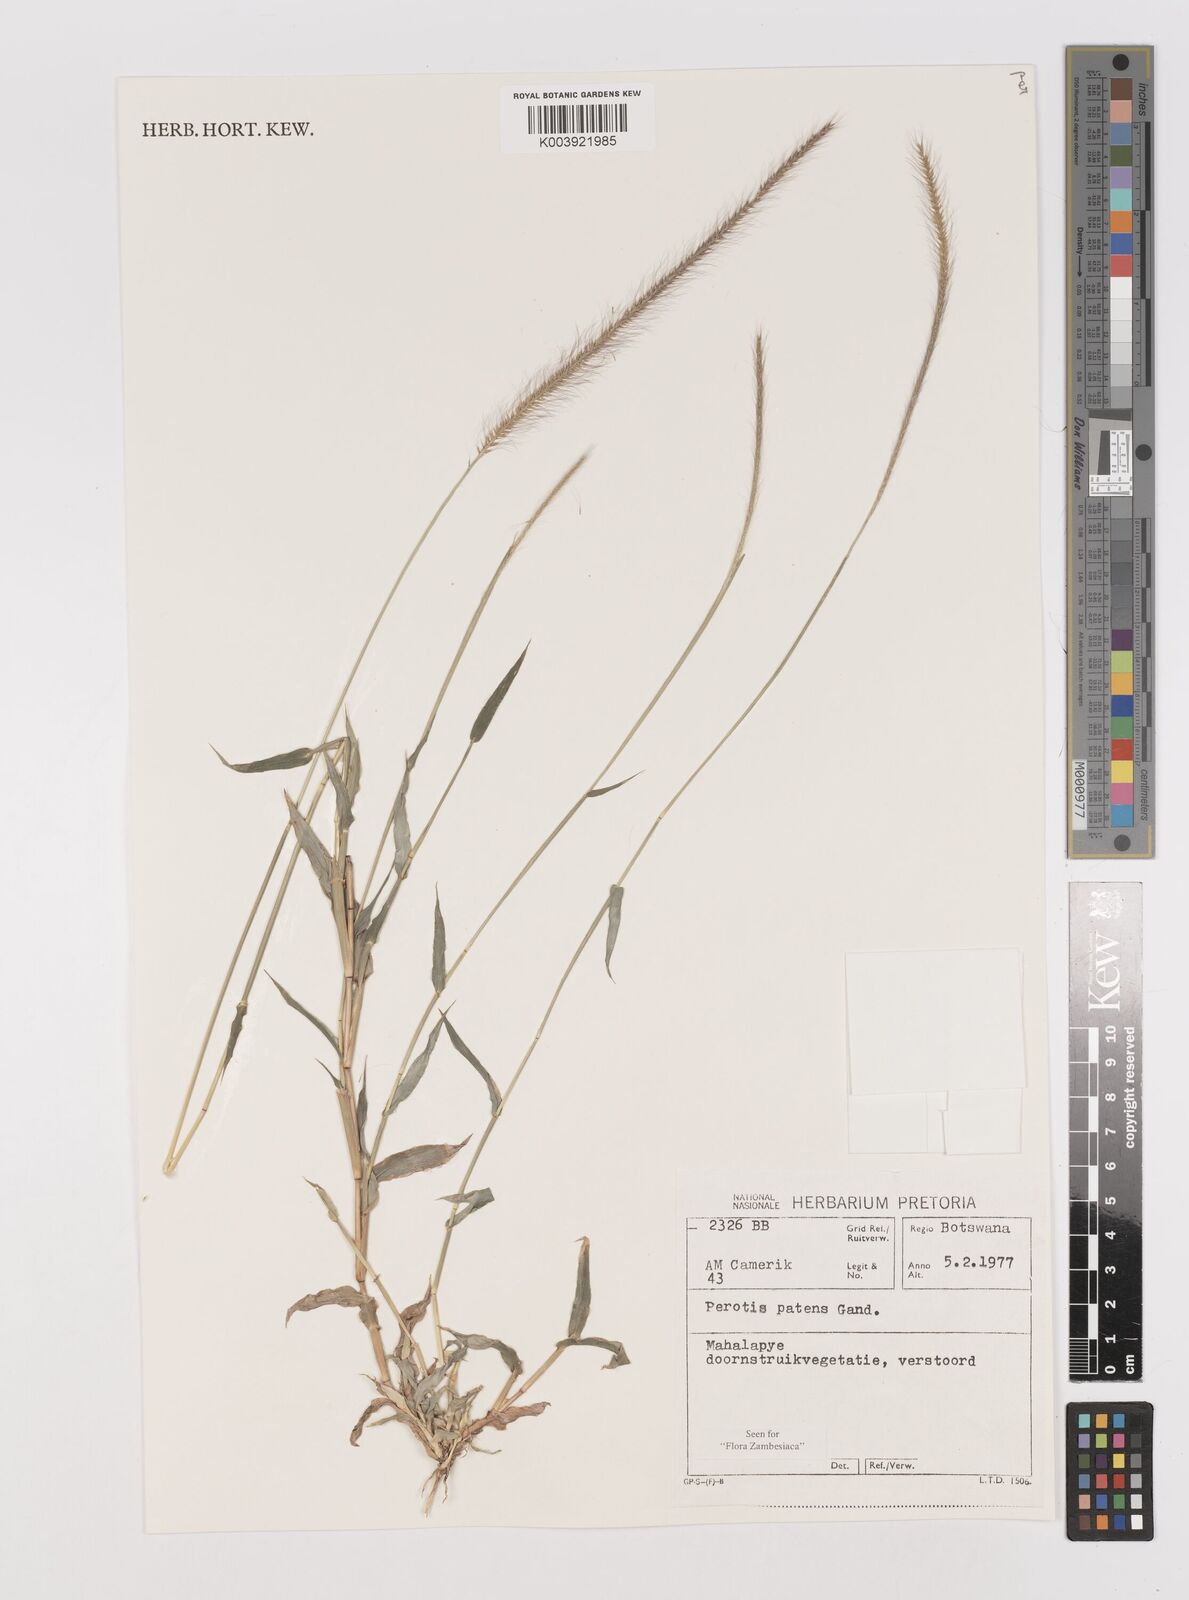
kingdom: Plantae
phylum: Tracheophyta
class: Liliopsida
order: Poales
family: Poaceae
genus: Perotis
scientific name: Perotis patens
